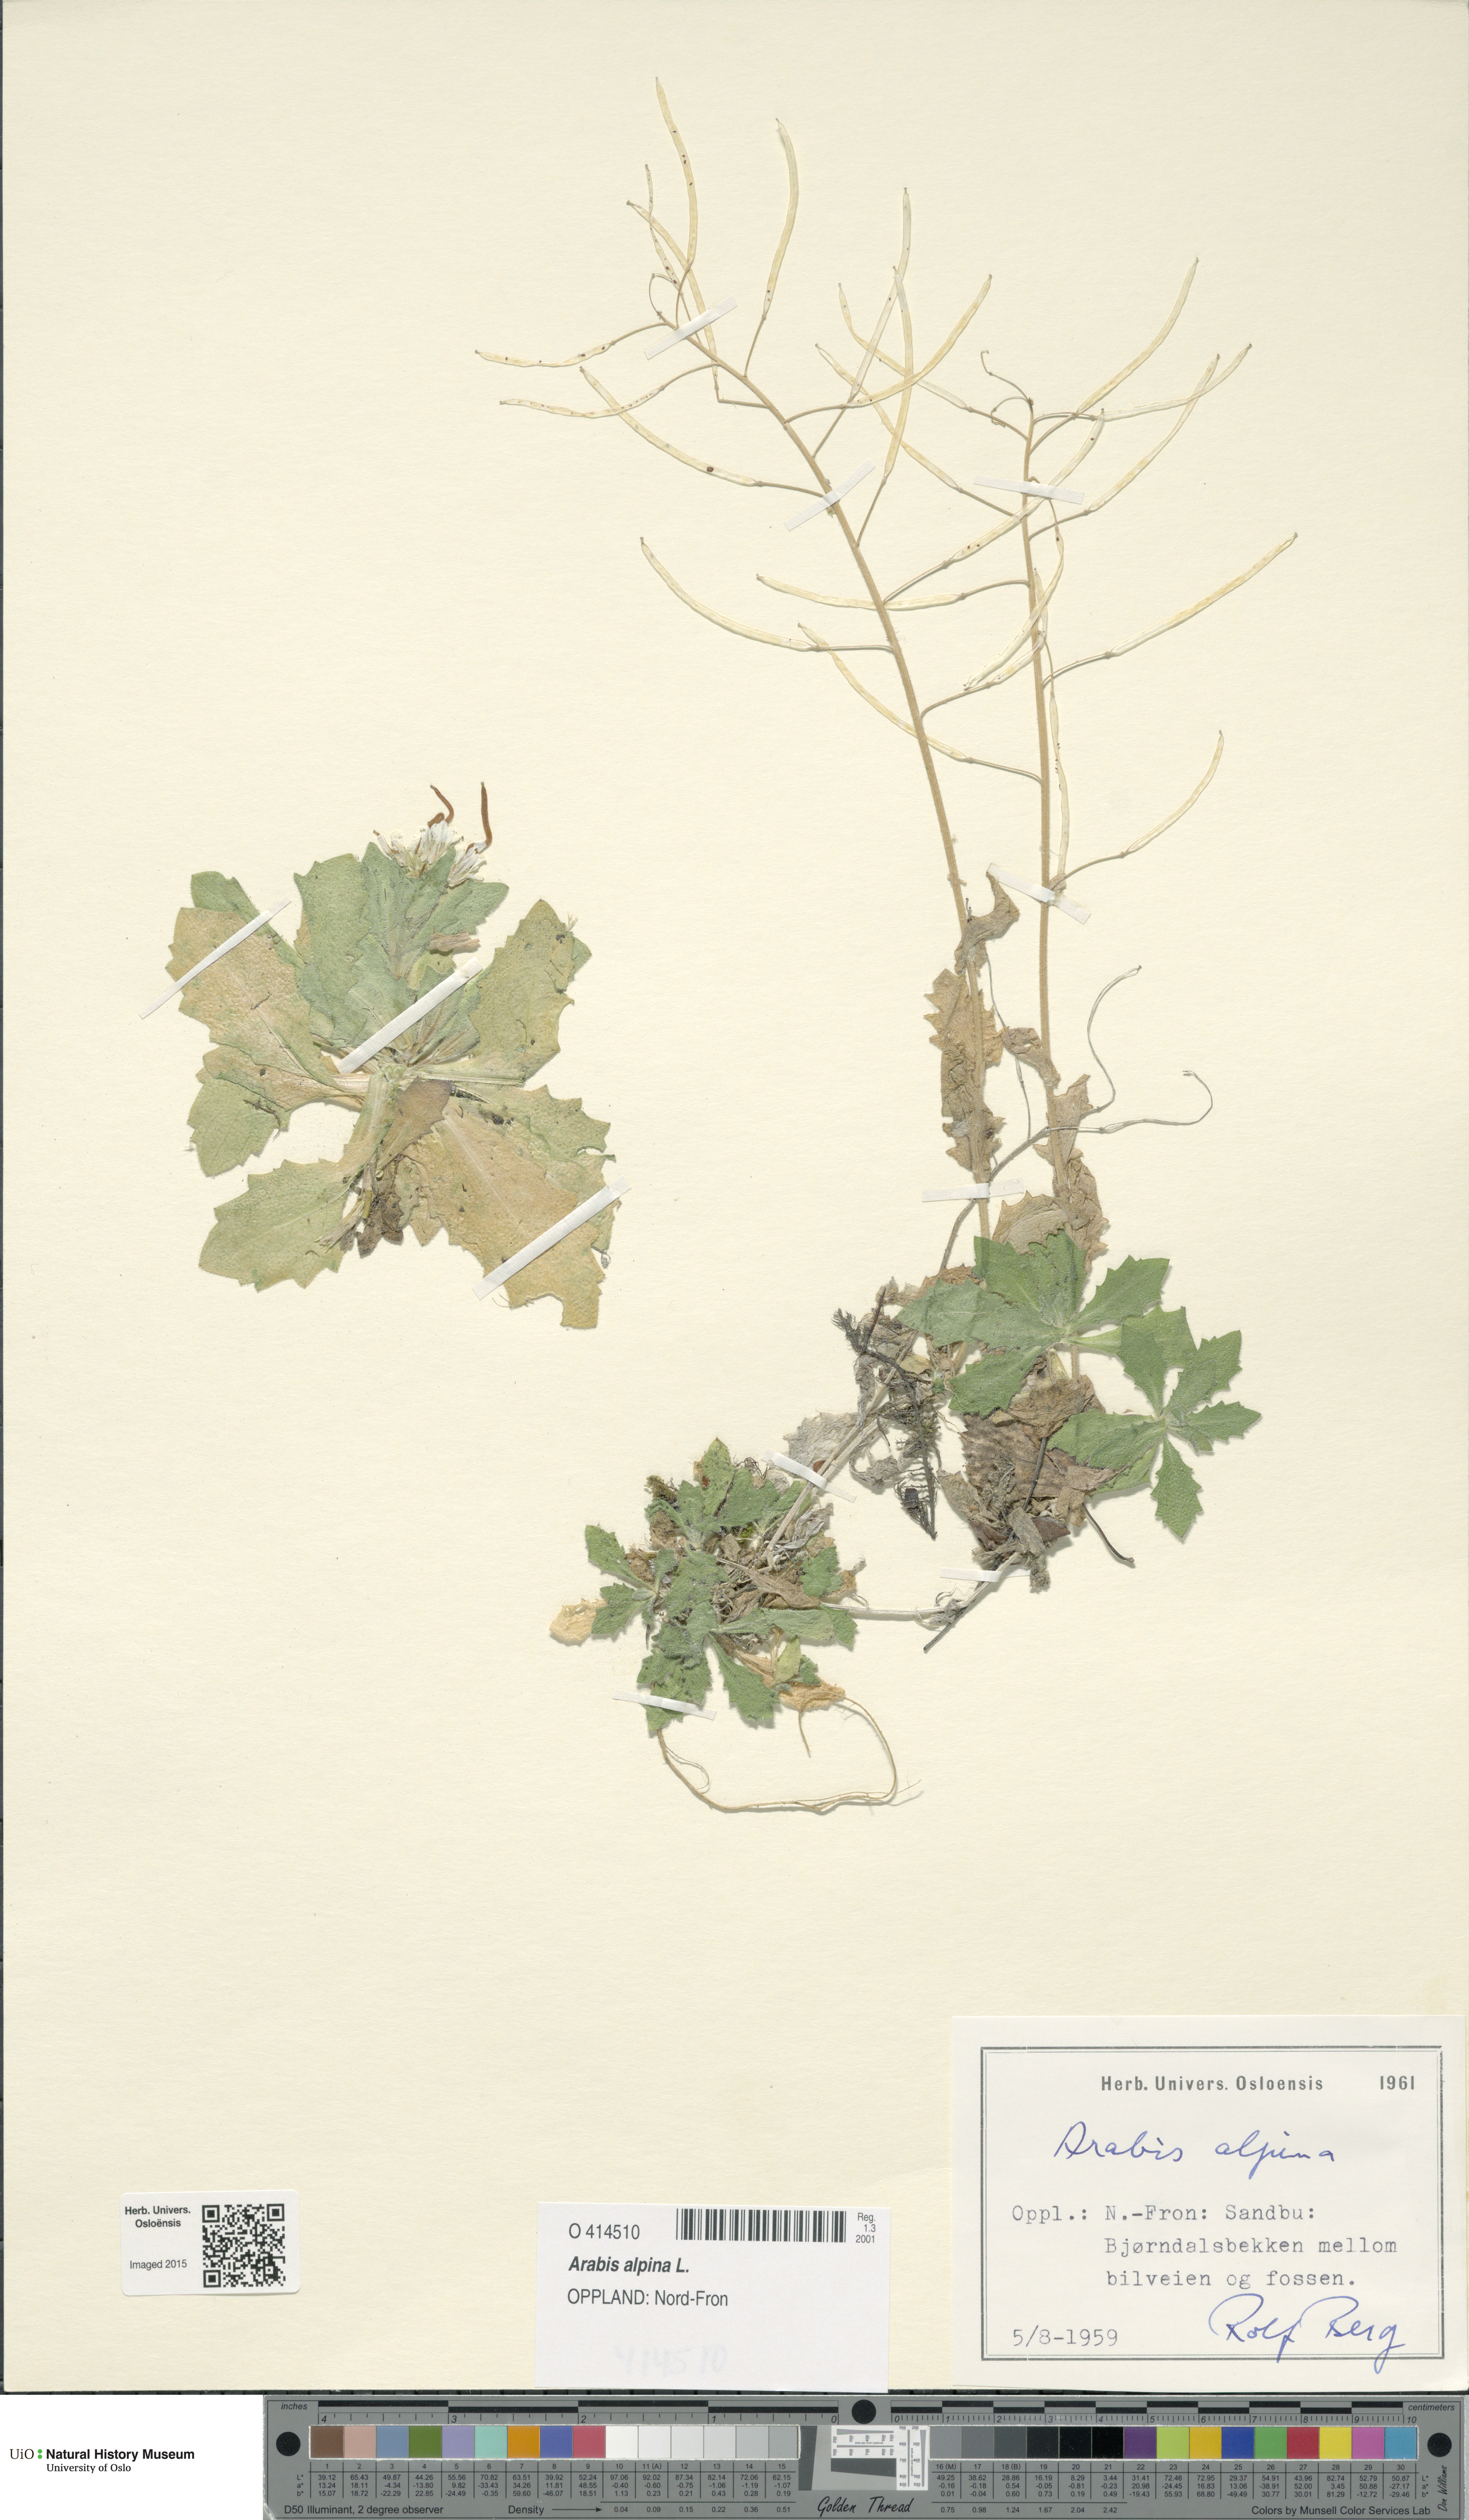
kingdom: Plantae
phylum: Tracheophyta
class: Magnoliopsida
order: Brassicales
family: Brassicaceae
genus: Arabis
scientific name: Arabis alpina
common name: Alpine rock-cress
